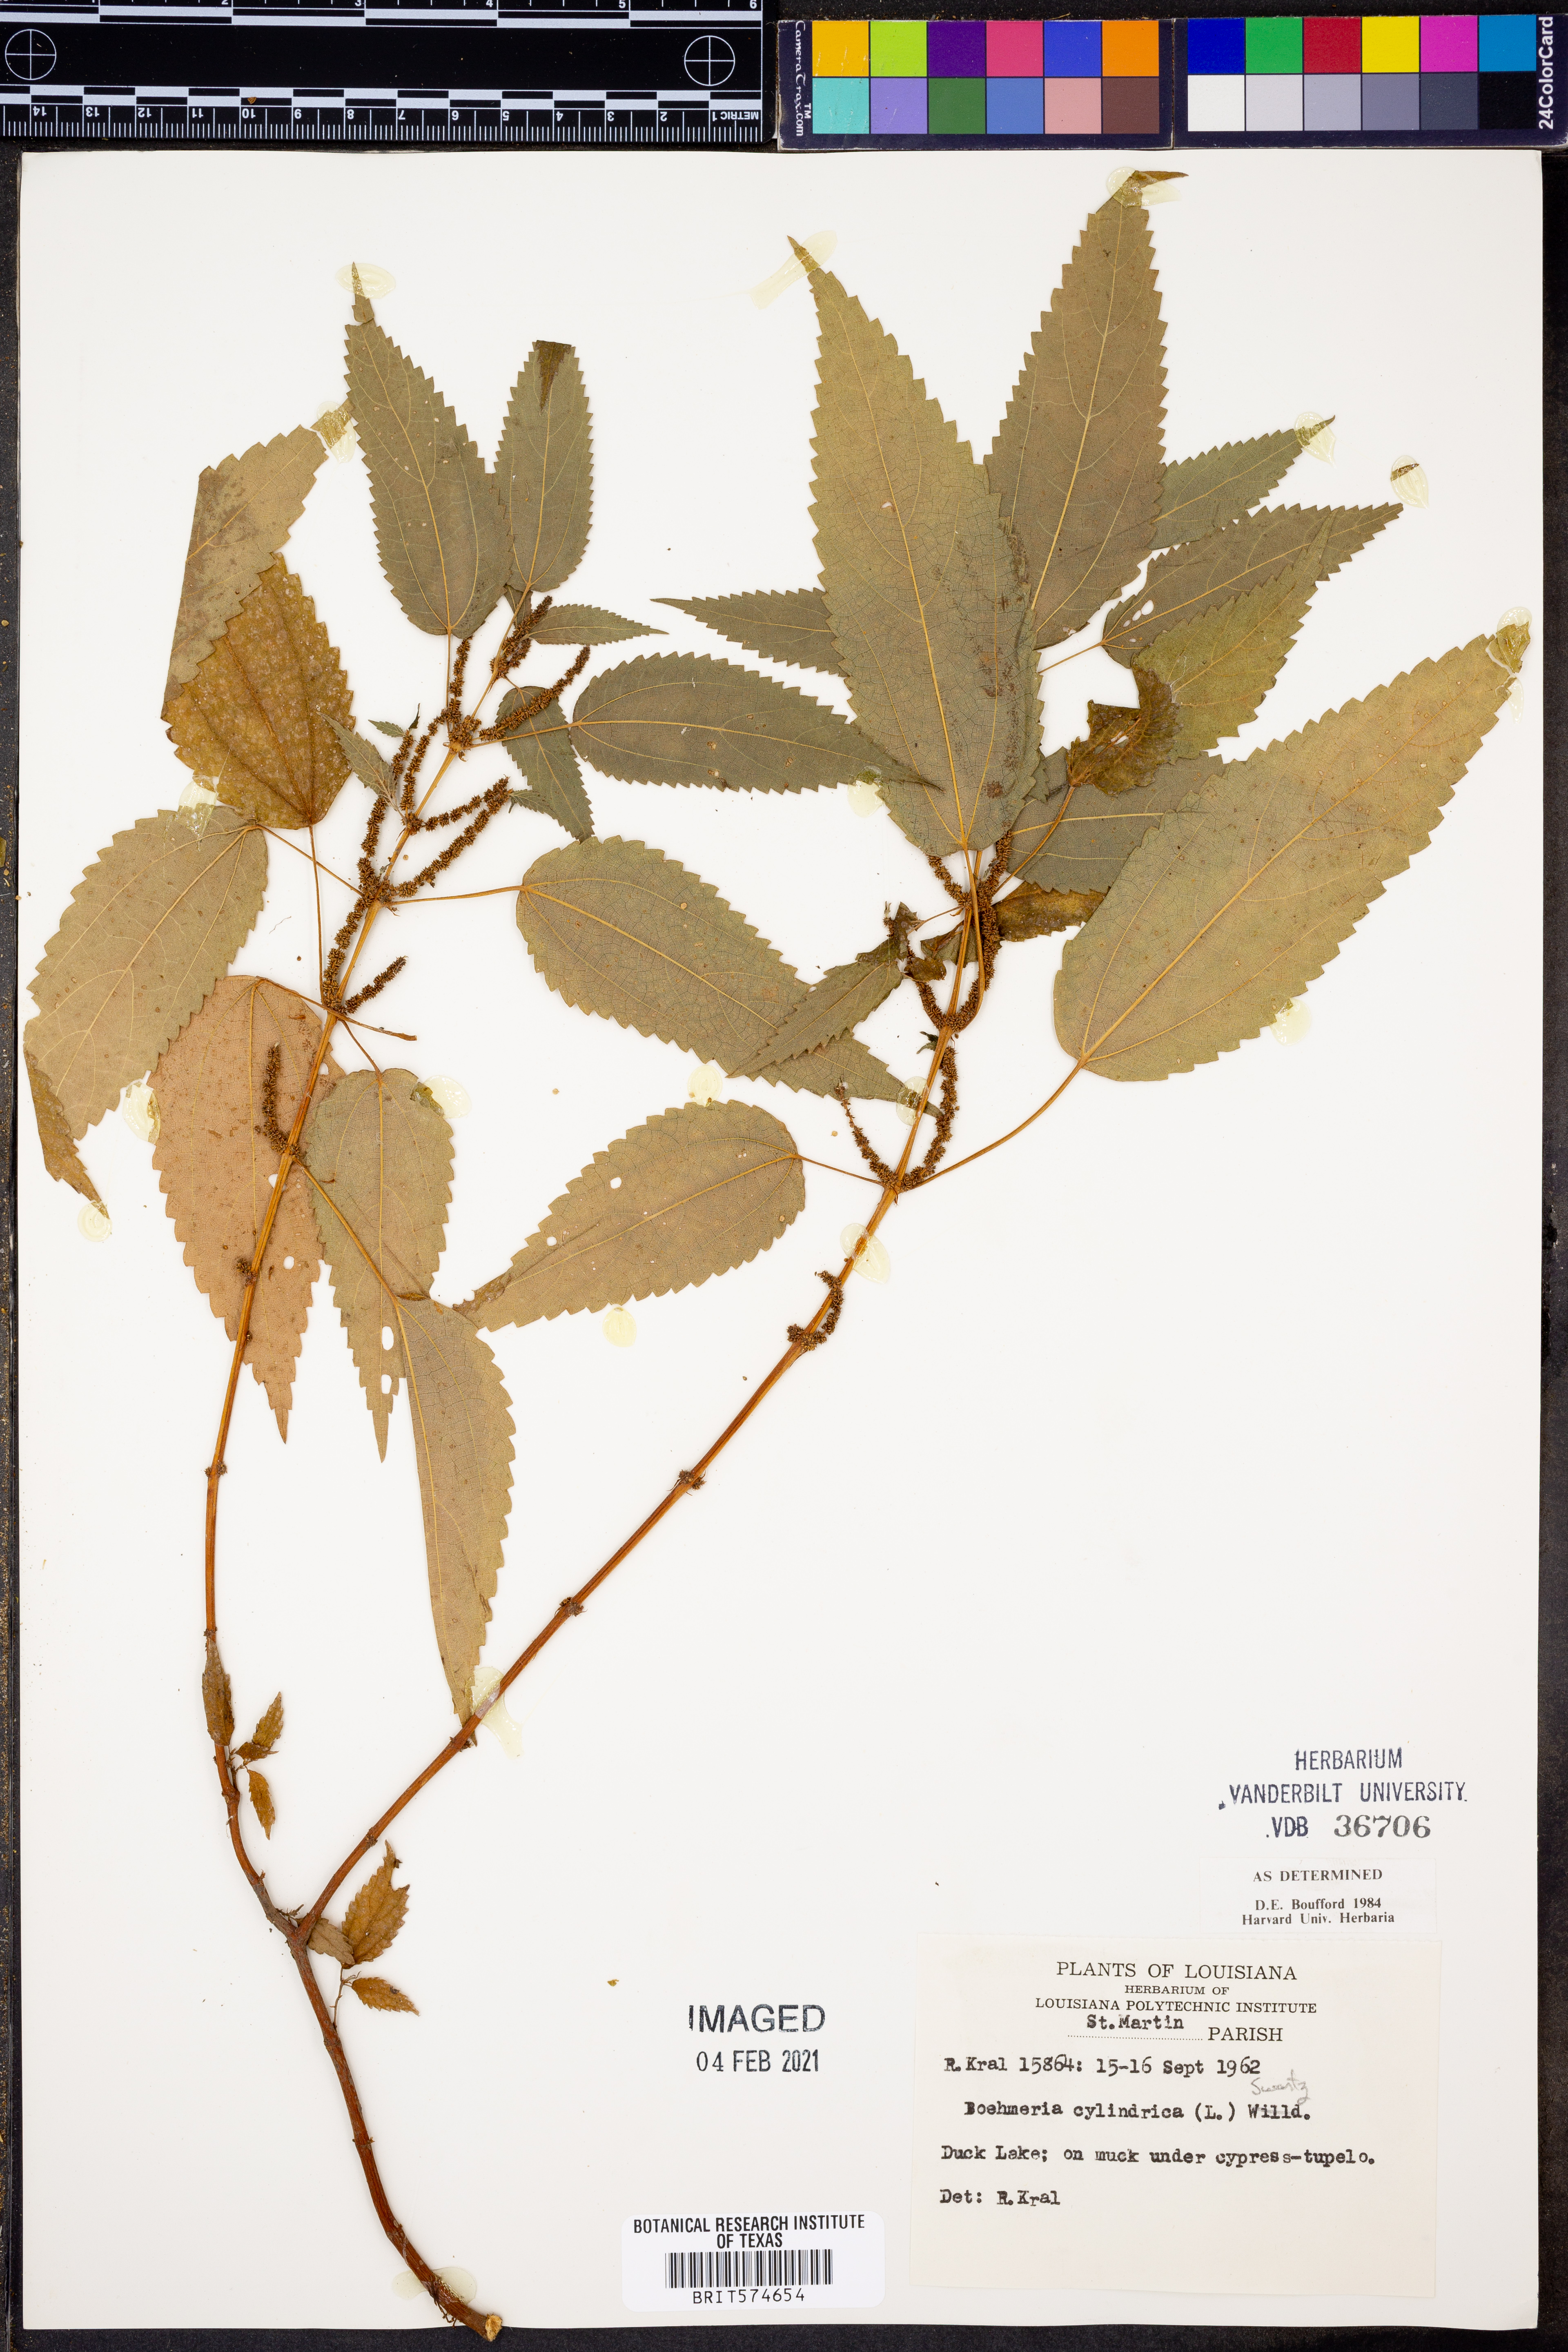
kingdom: Plantae
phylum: Tracheophyta
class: Magnoliopsida
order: Rosales
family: Urticaceae
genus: Boehmeria
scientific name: Boehmeria cylindrica
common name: Bog-hemp
